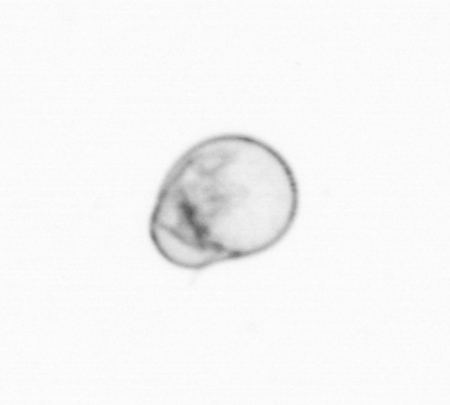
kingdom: Chromista
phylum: Myzozoa
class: Dinophyceae
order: Noctilucales
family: Noctilucaceae
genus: Noctiluca
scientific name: Noctiluca scintillans
